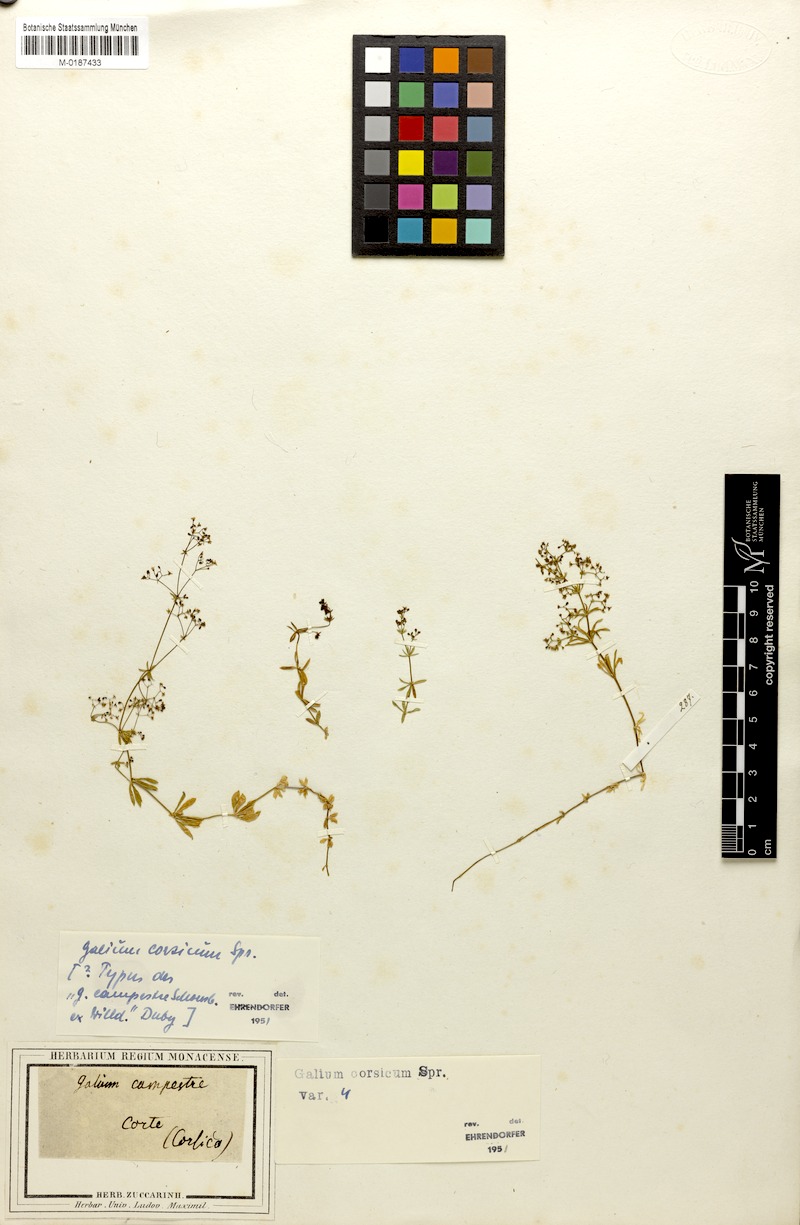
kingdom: Plantae
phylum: Tracheophyta
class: Magnoliopsida
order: Gentianales
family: Rubiaceae
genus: Galium
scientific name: Galium corsicum
